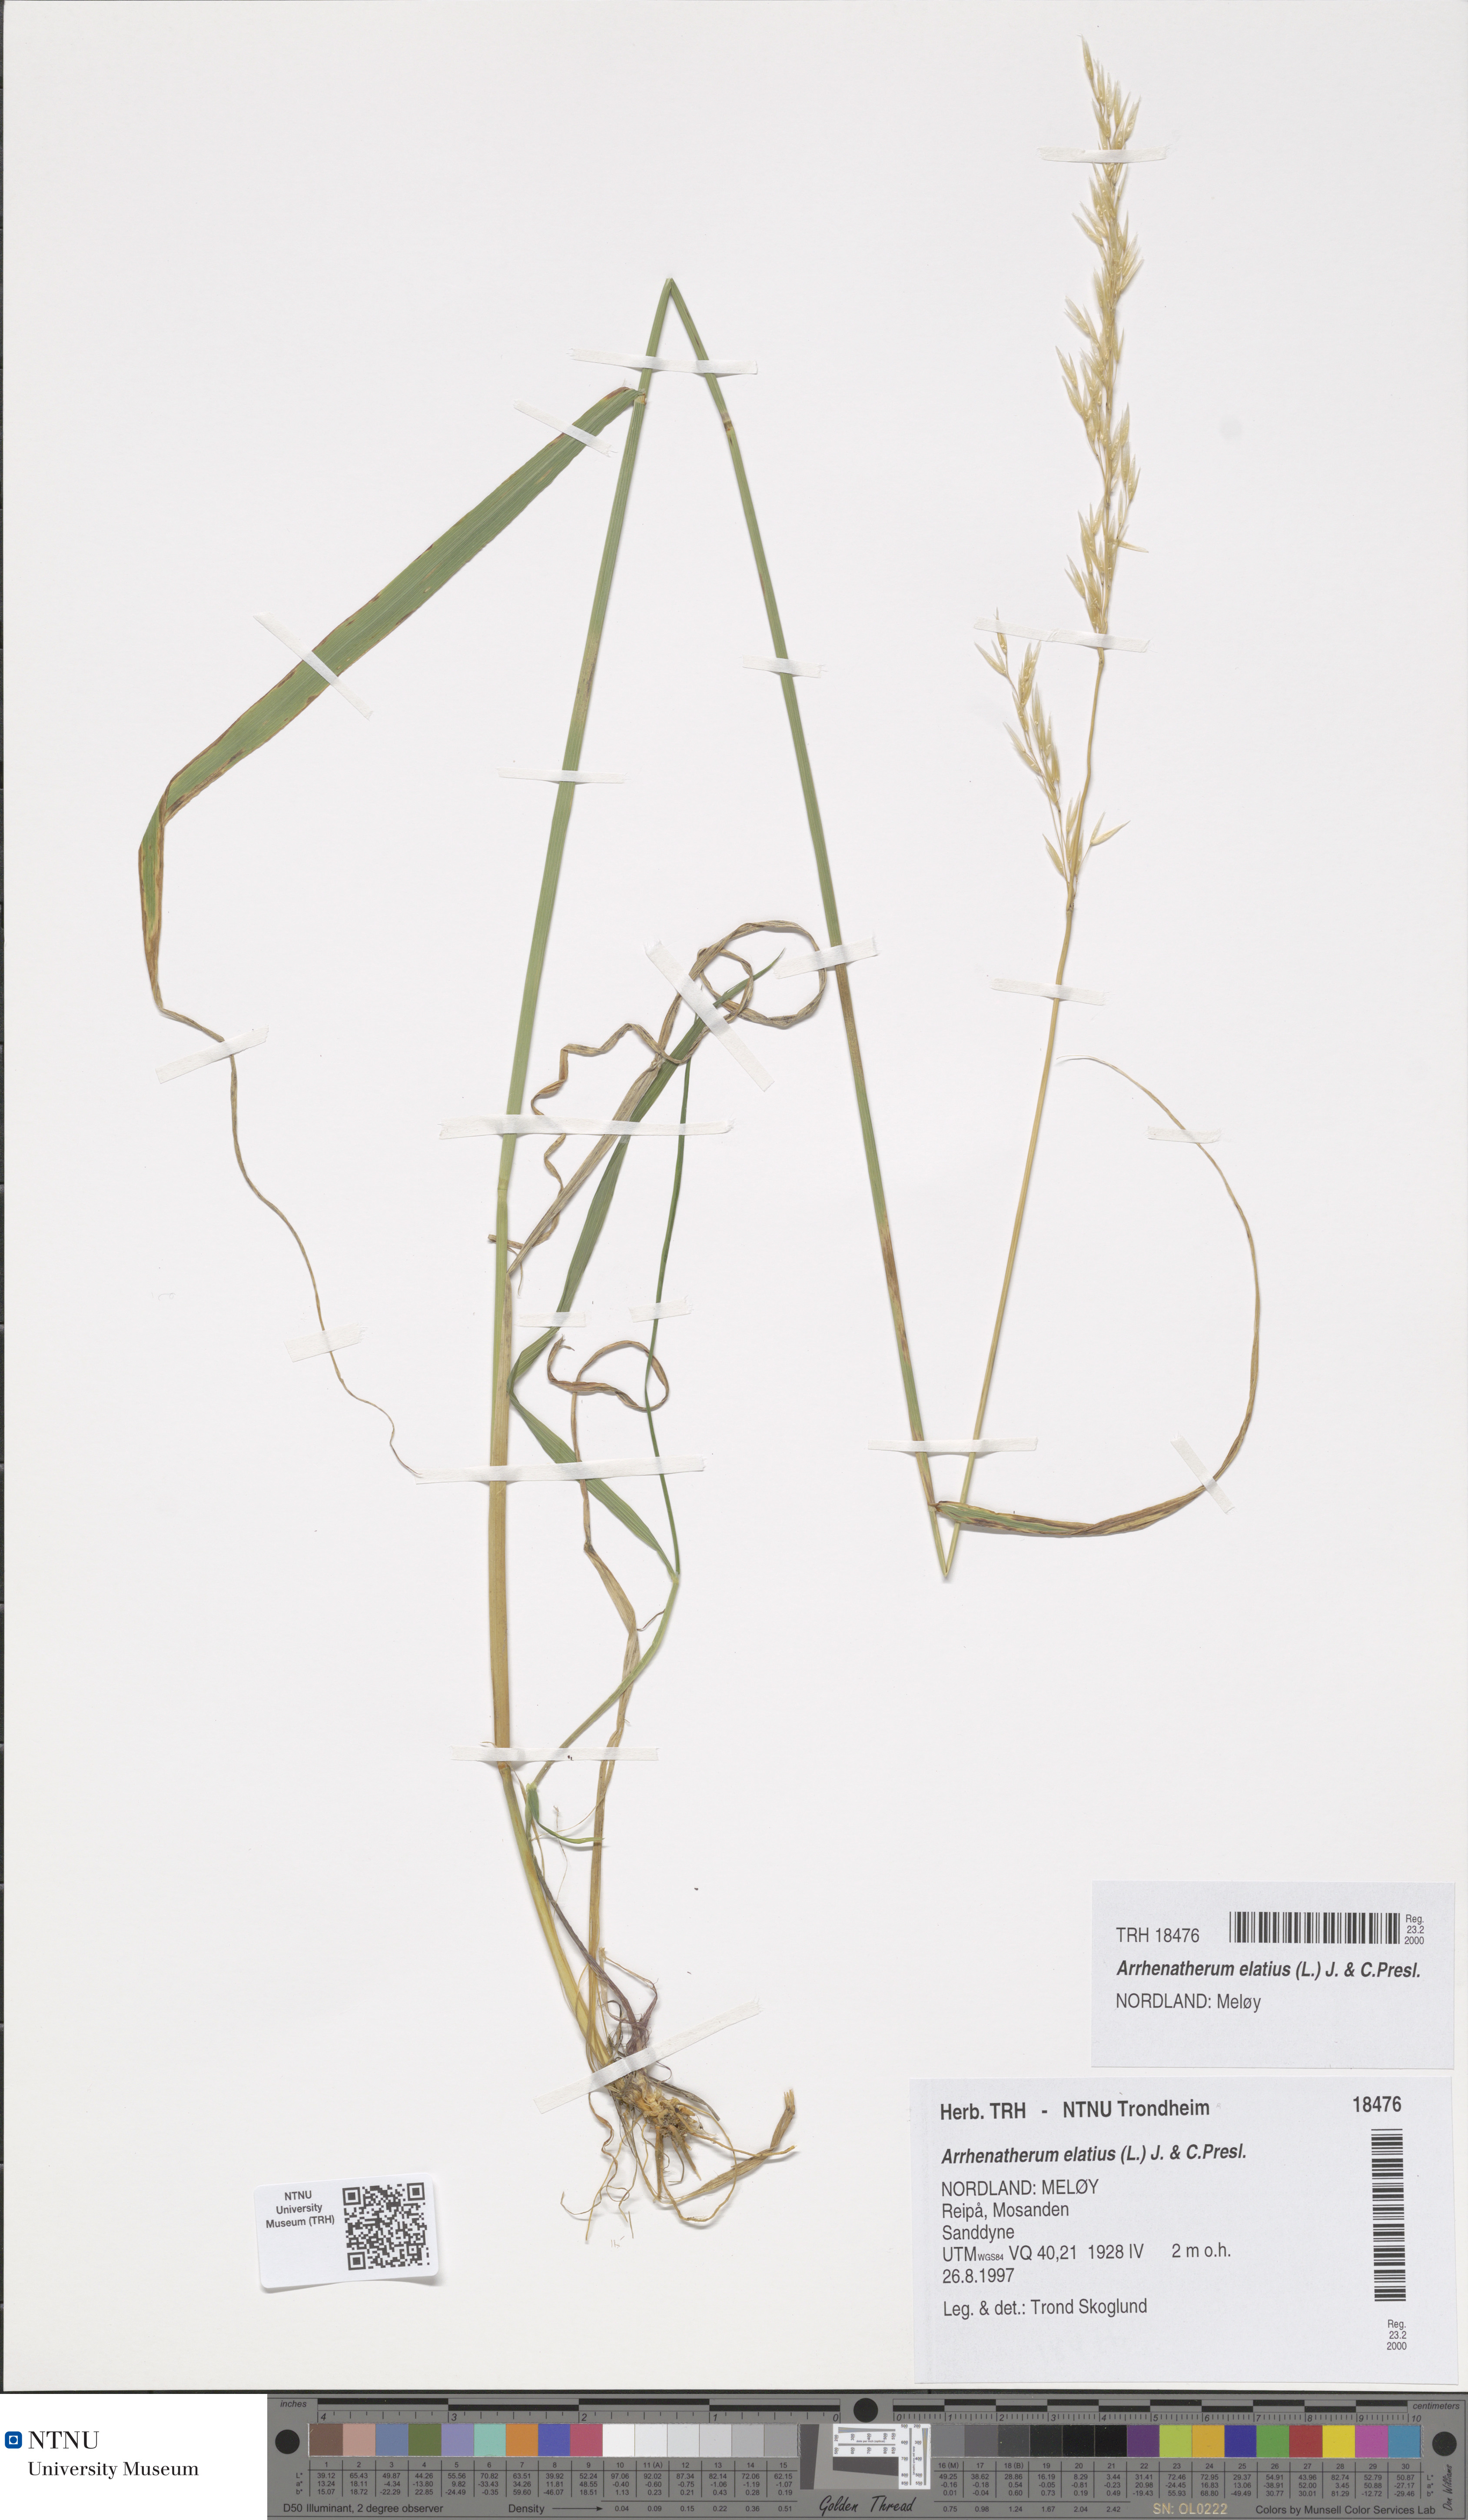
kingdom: Plantae
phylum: Tracheophyta
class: Liliopsida
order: Poales
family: Poaceae
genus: Arrhenatherum
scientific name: Arrhenatherum elatius
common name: Tall oatgrass
